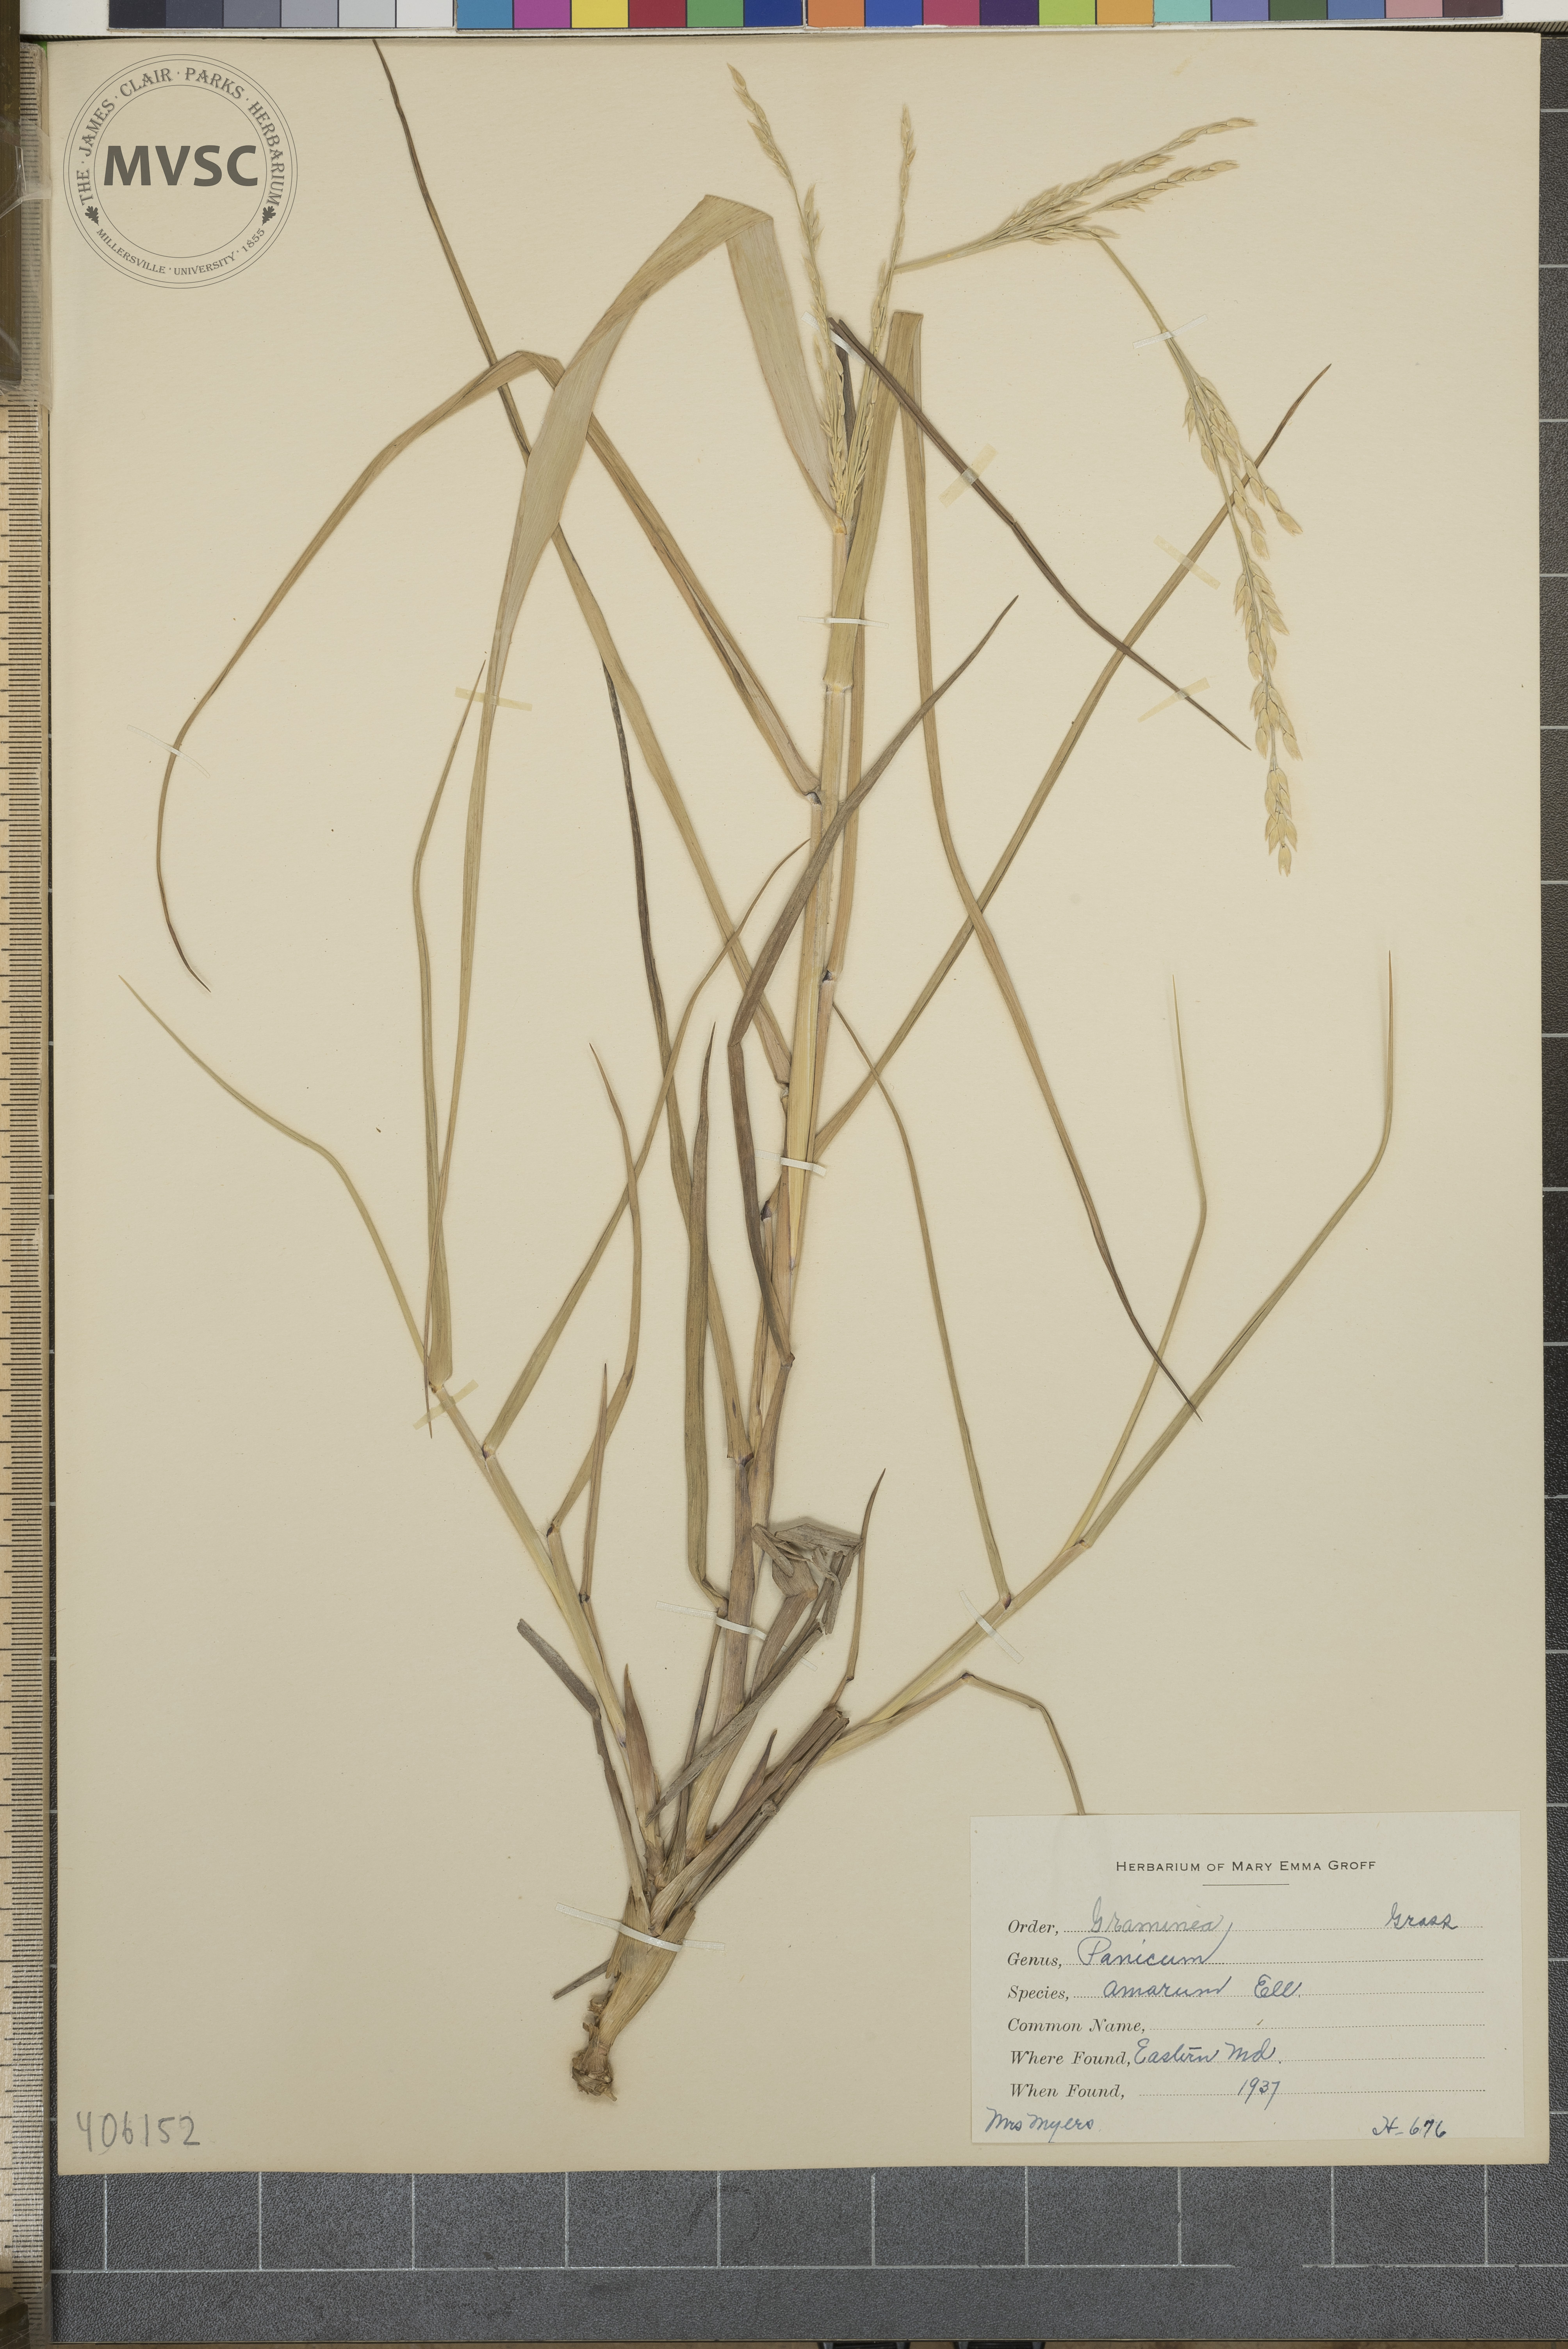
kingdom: Plantae
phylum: Tracheophyta
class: Liliopsida
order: Poales
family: Poaceae
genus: Panicum
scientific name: Panicum amarum
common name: Bitter panicum
